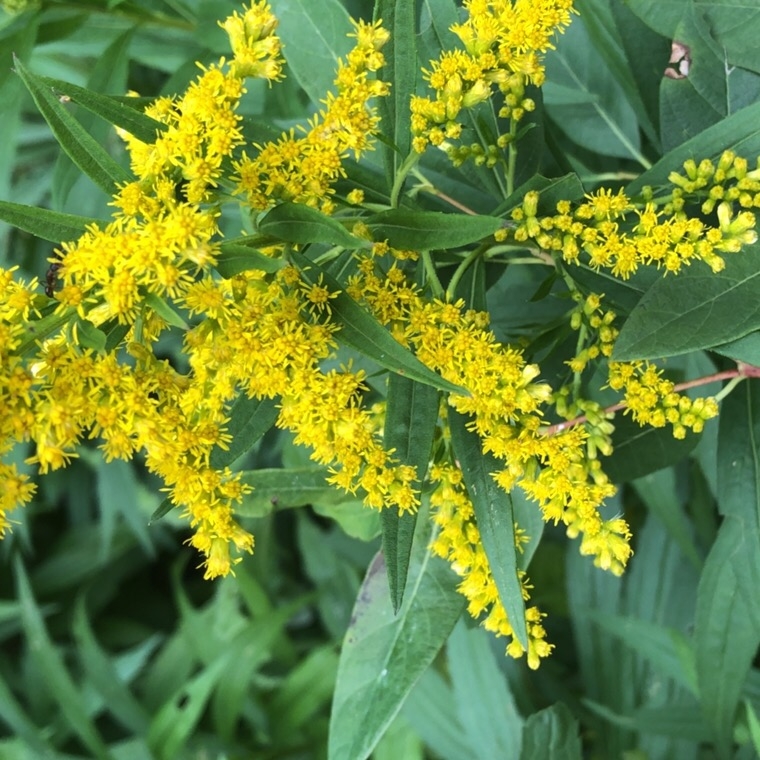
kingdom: Plantae
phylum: Tracheophyta
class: Magnoliopsida
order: Asterales
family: Asteraceae
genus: Solidago
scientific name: Solidago altissima
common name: Late goldenrod
